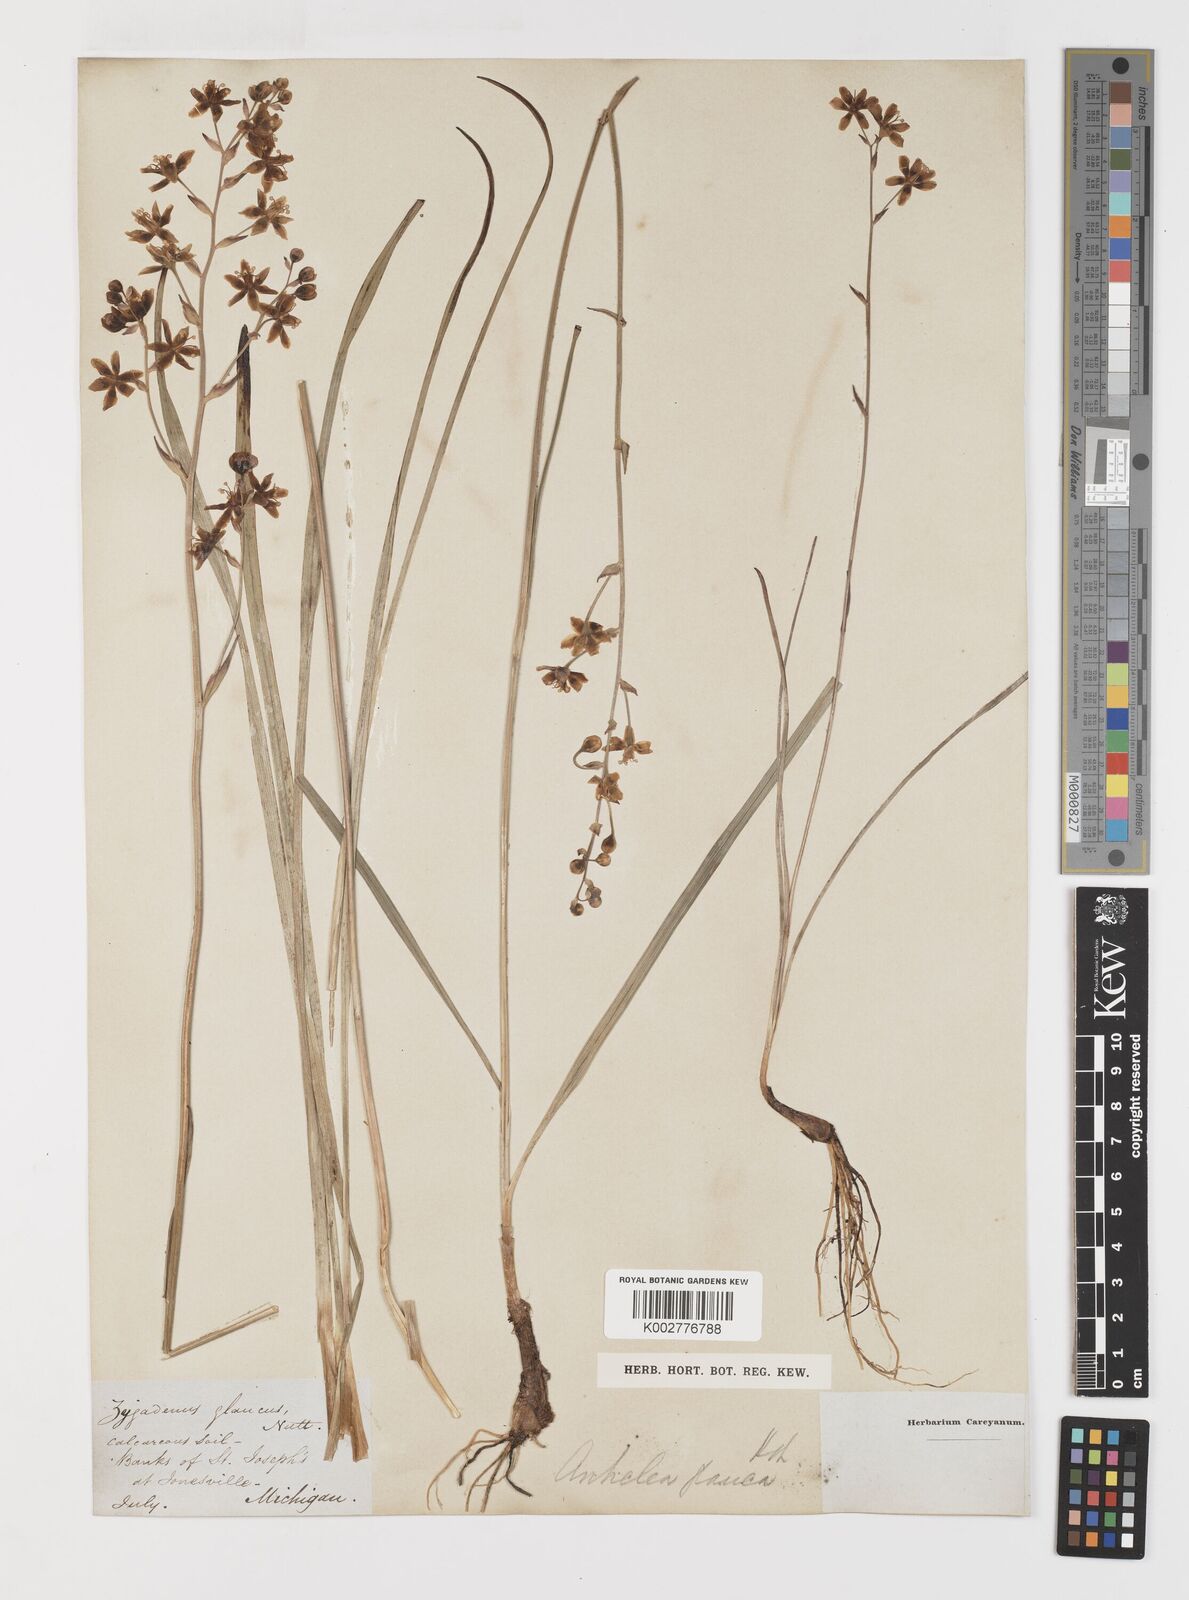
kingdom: Plantae
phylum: Tracheophyta
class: Liliopsida
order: Liliales
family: Melanthiaceae
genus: Anticlea
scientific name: Anticlea elegans
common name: Mountain death camas
